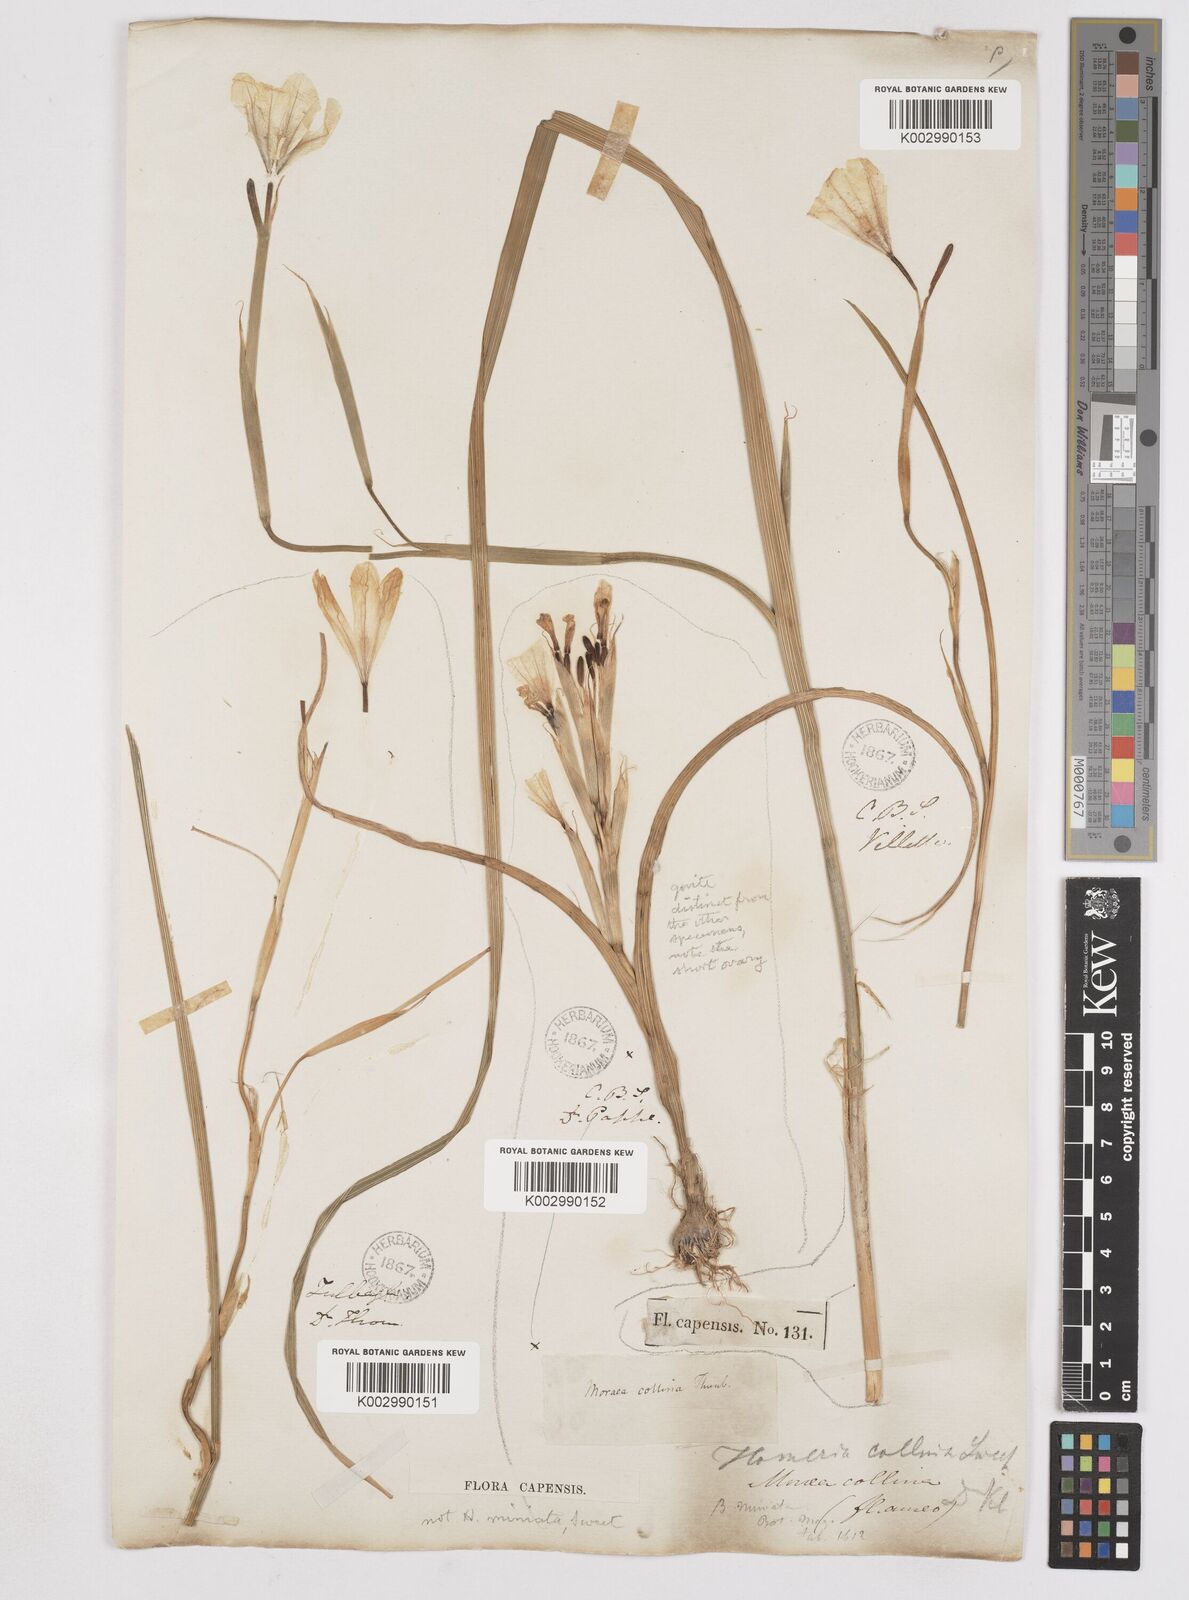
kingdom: Plantae
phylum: Tracheophyta
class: Liliopsida
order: Asparagales
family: Iridaceae
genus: Moraea
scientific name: Moraea collina
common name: Cape-tulip
